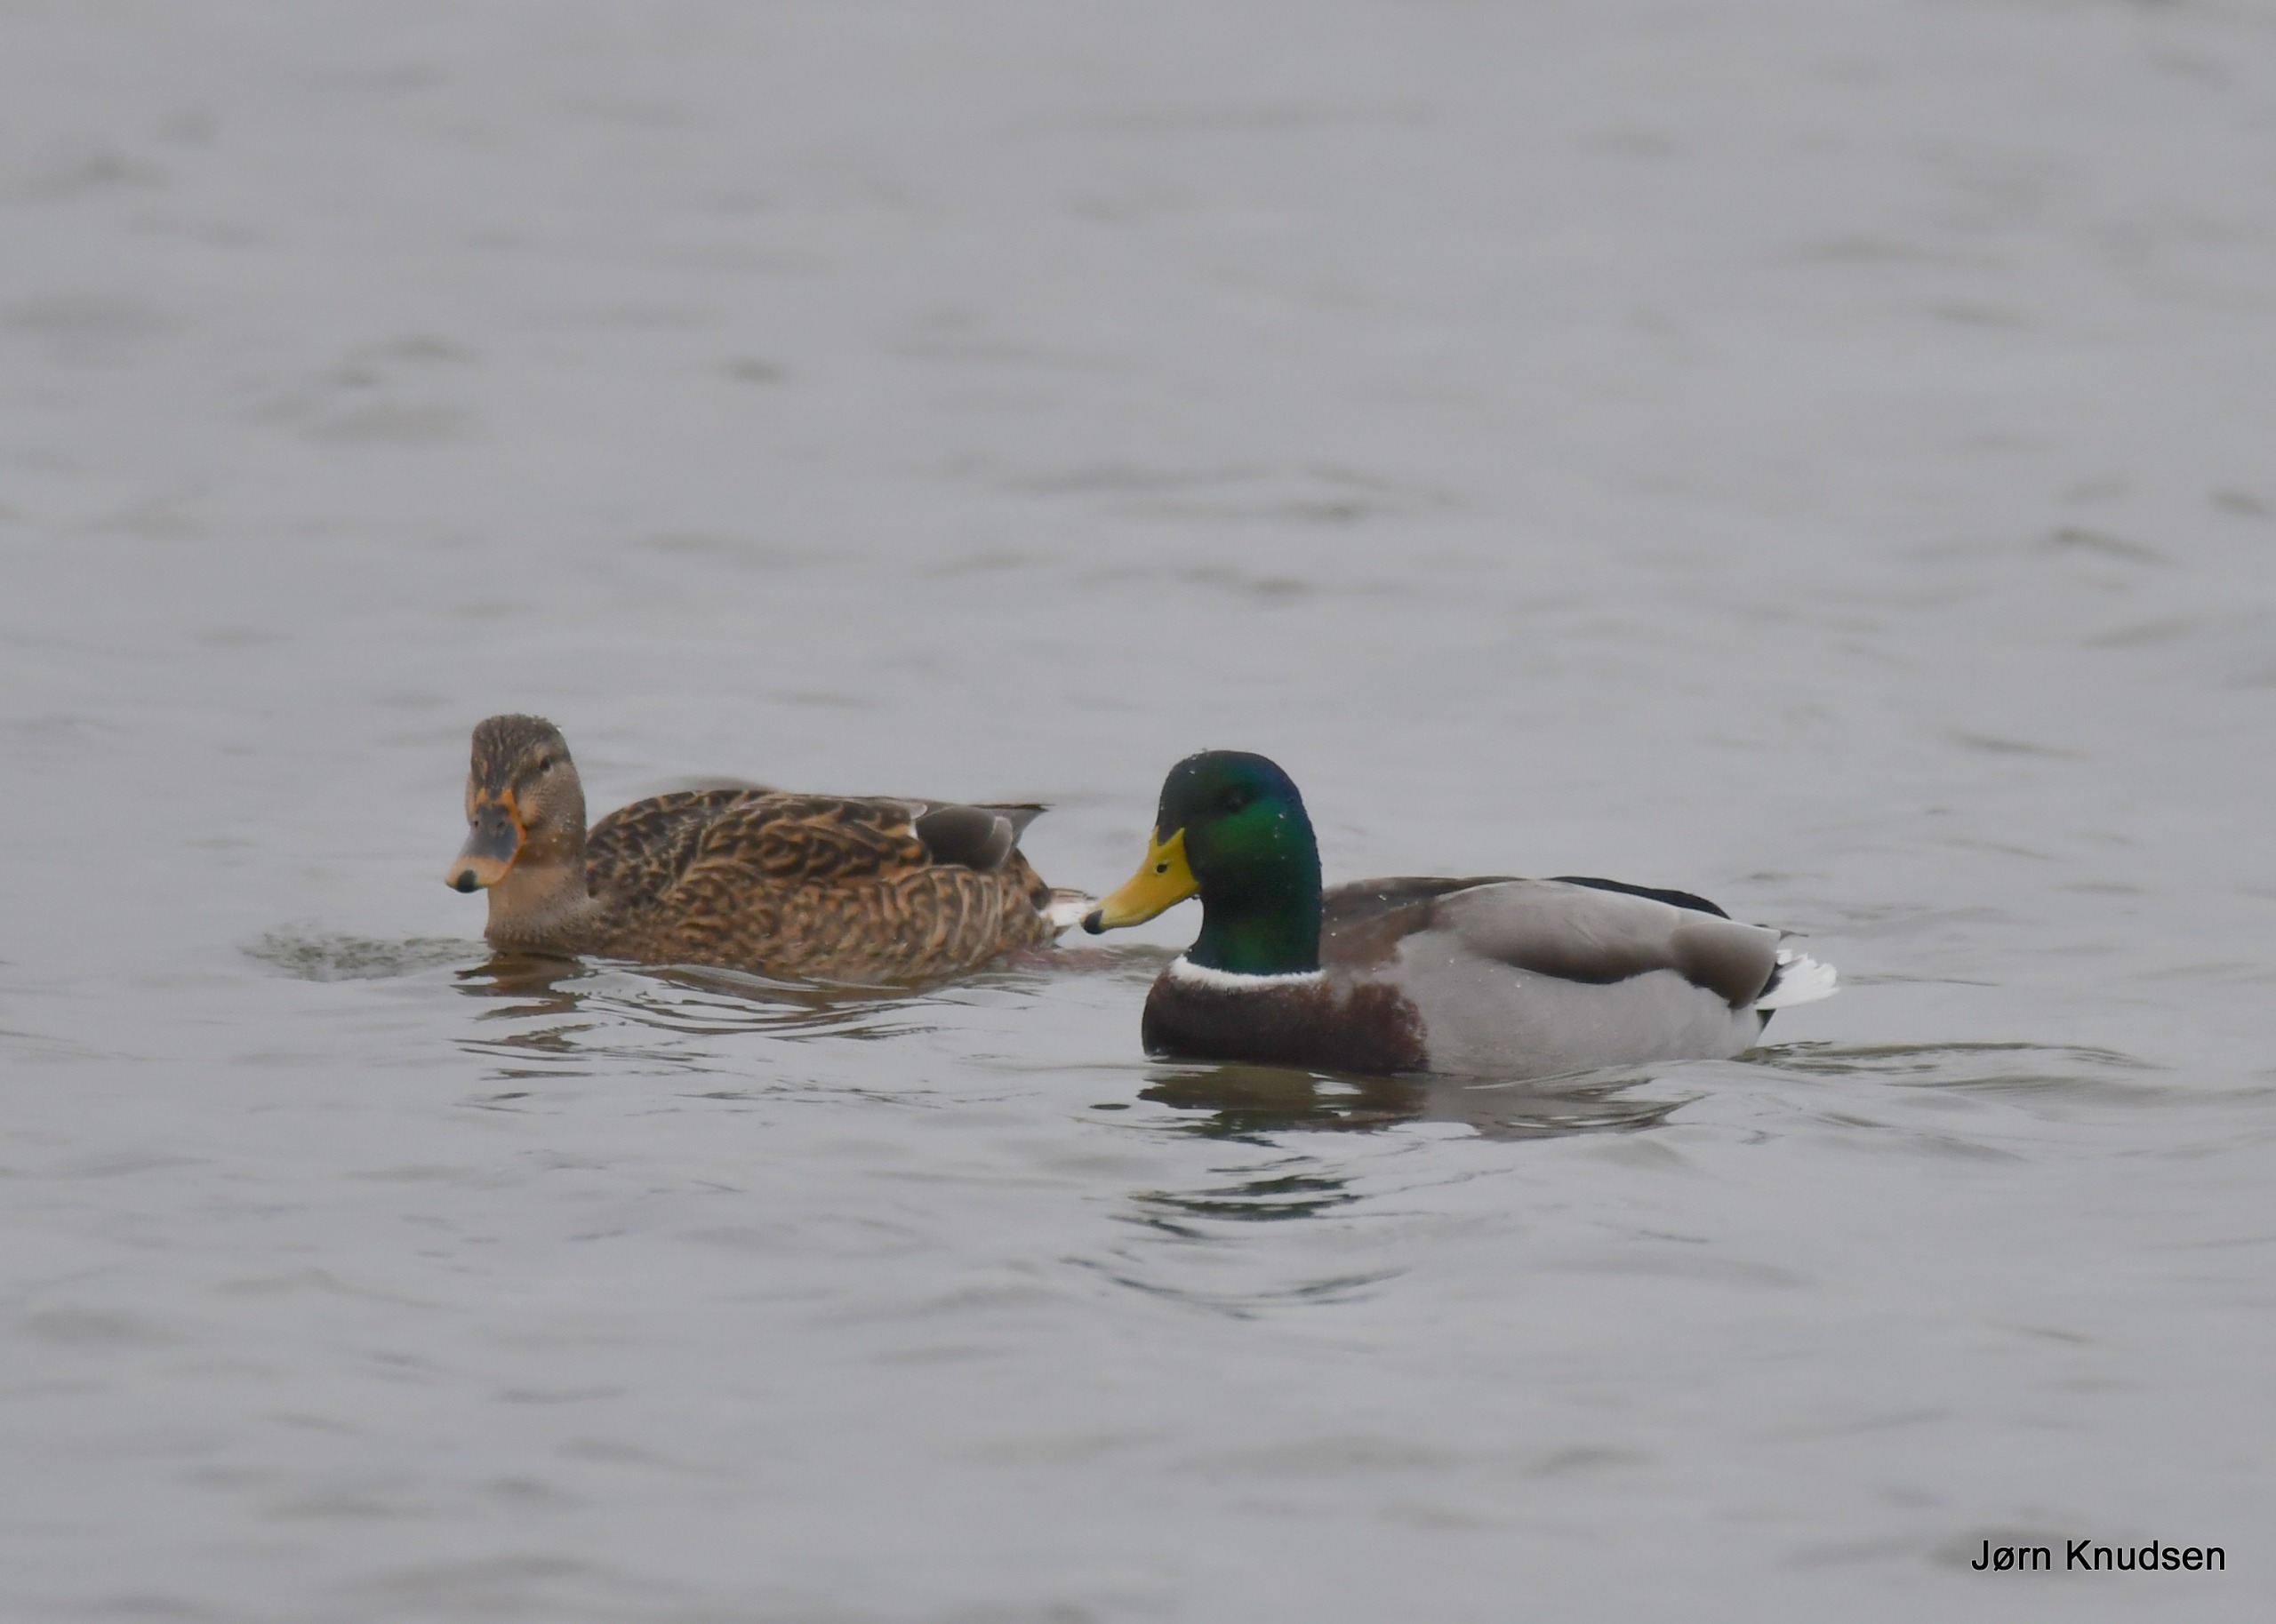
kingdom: Animalia
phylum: Chordata
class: Aves
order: Anseriformes
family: Anatidae
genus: Anas
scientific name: Anas platyrhynchos
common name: Gråand
